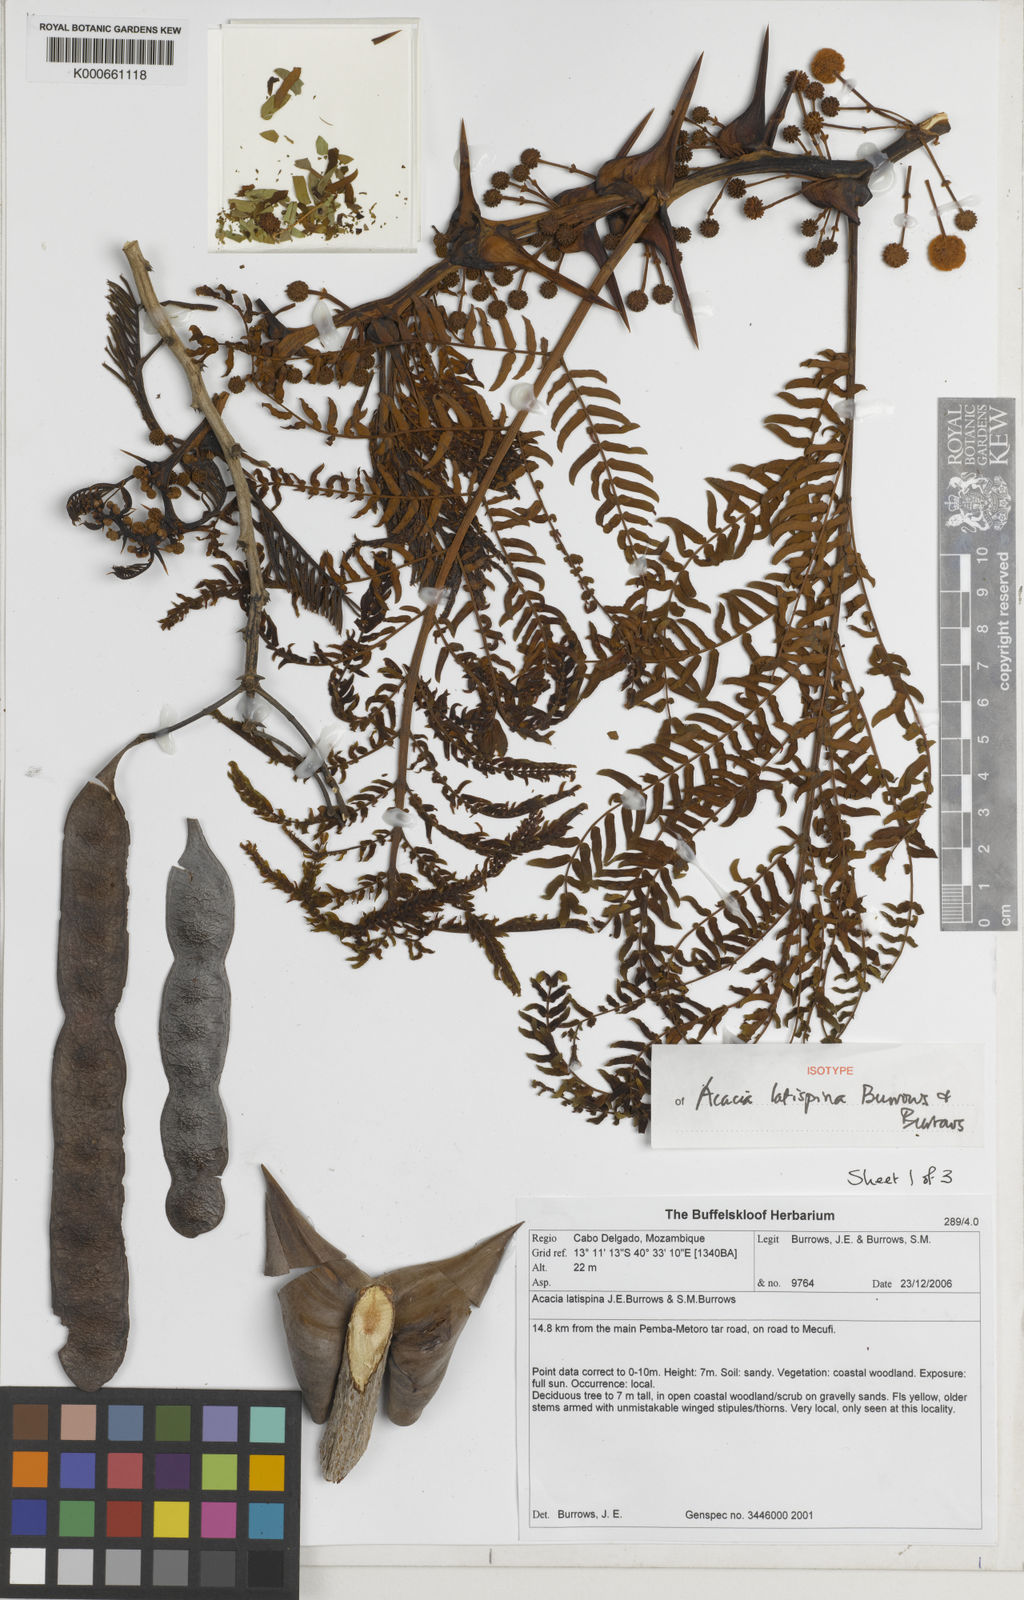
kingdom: Plantae
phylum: Tracheophyta
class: Magnoliopsida
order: Fabales
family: Fabaceae
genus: Vachellia
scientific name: Vachellia latispina
